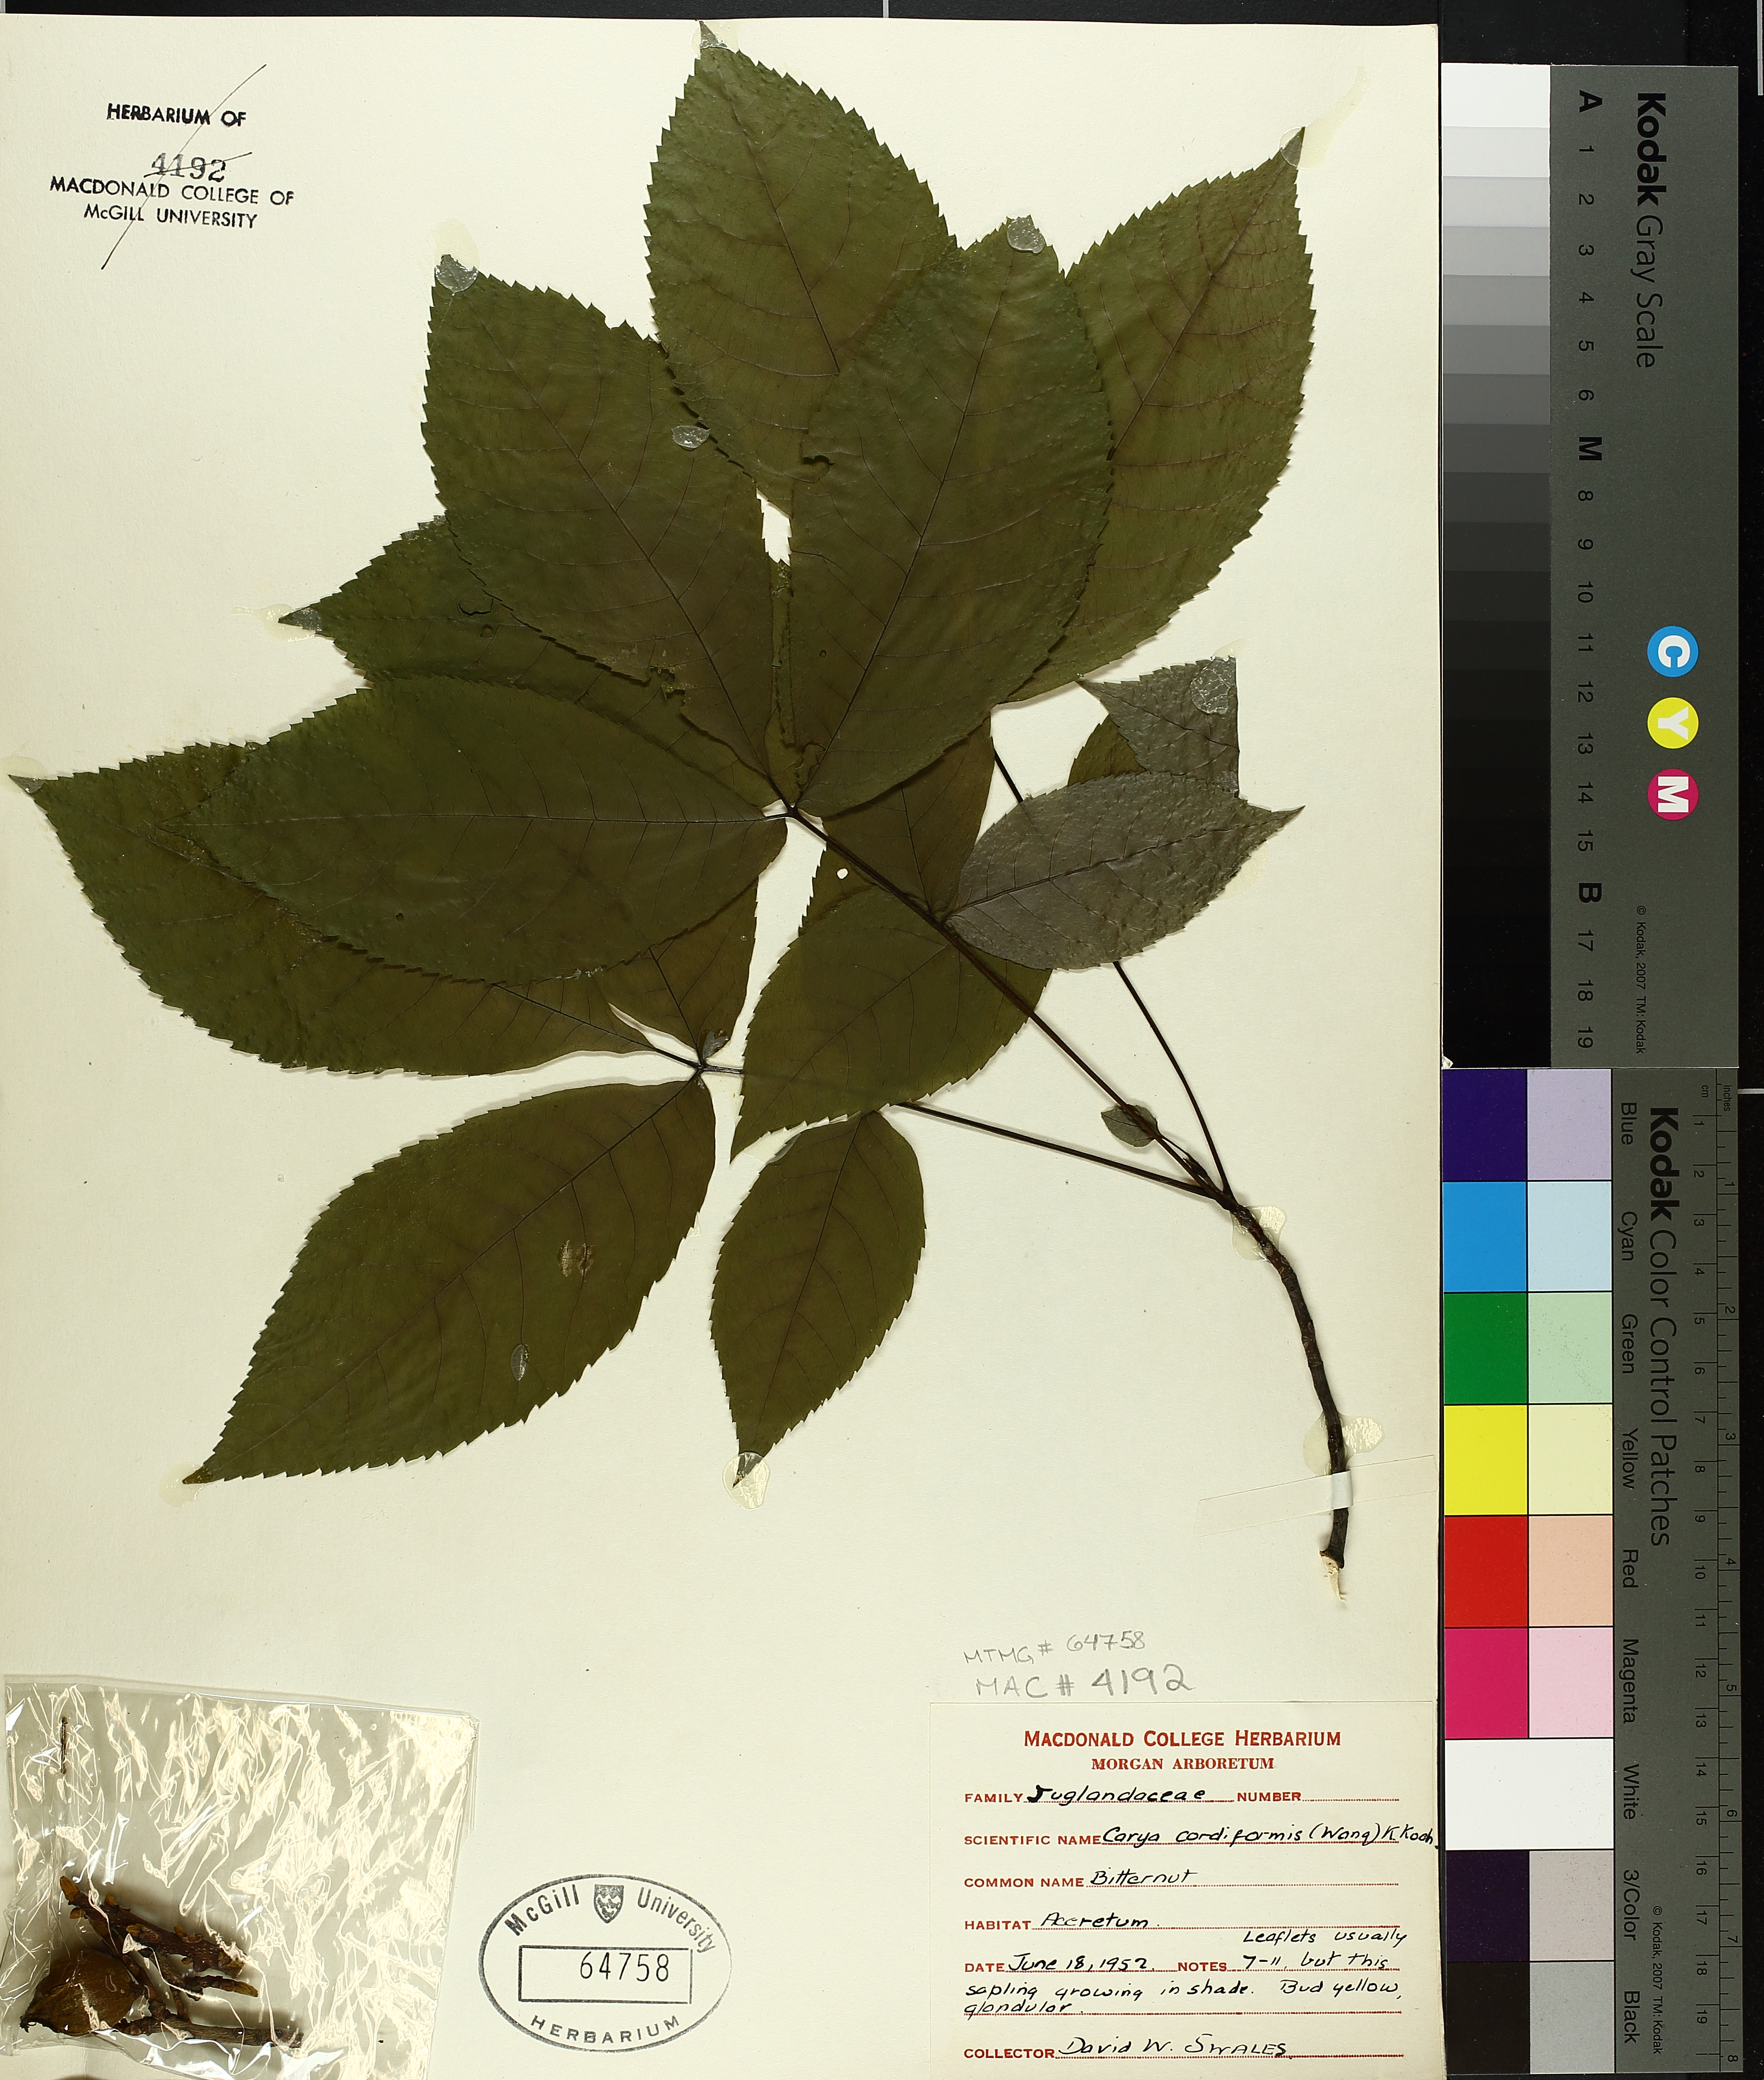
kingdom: Plantae
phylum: Tracheophyta
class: Magnoliopsida
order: Fagales
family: Juglandaceae
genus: Carya
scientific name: Carya cordiformis
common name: Bitternut hickory
